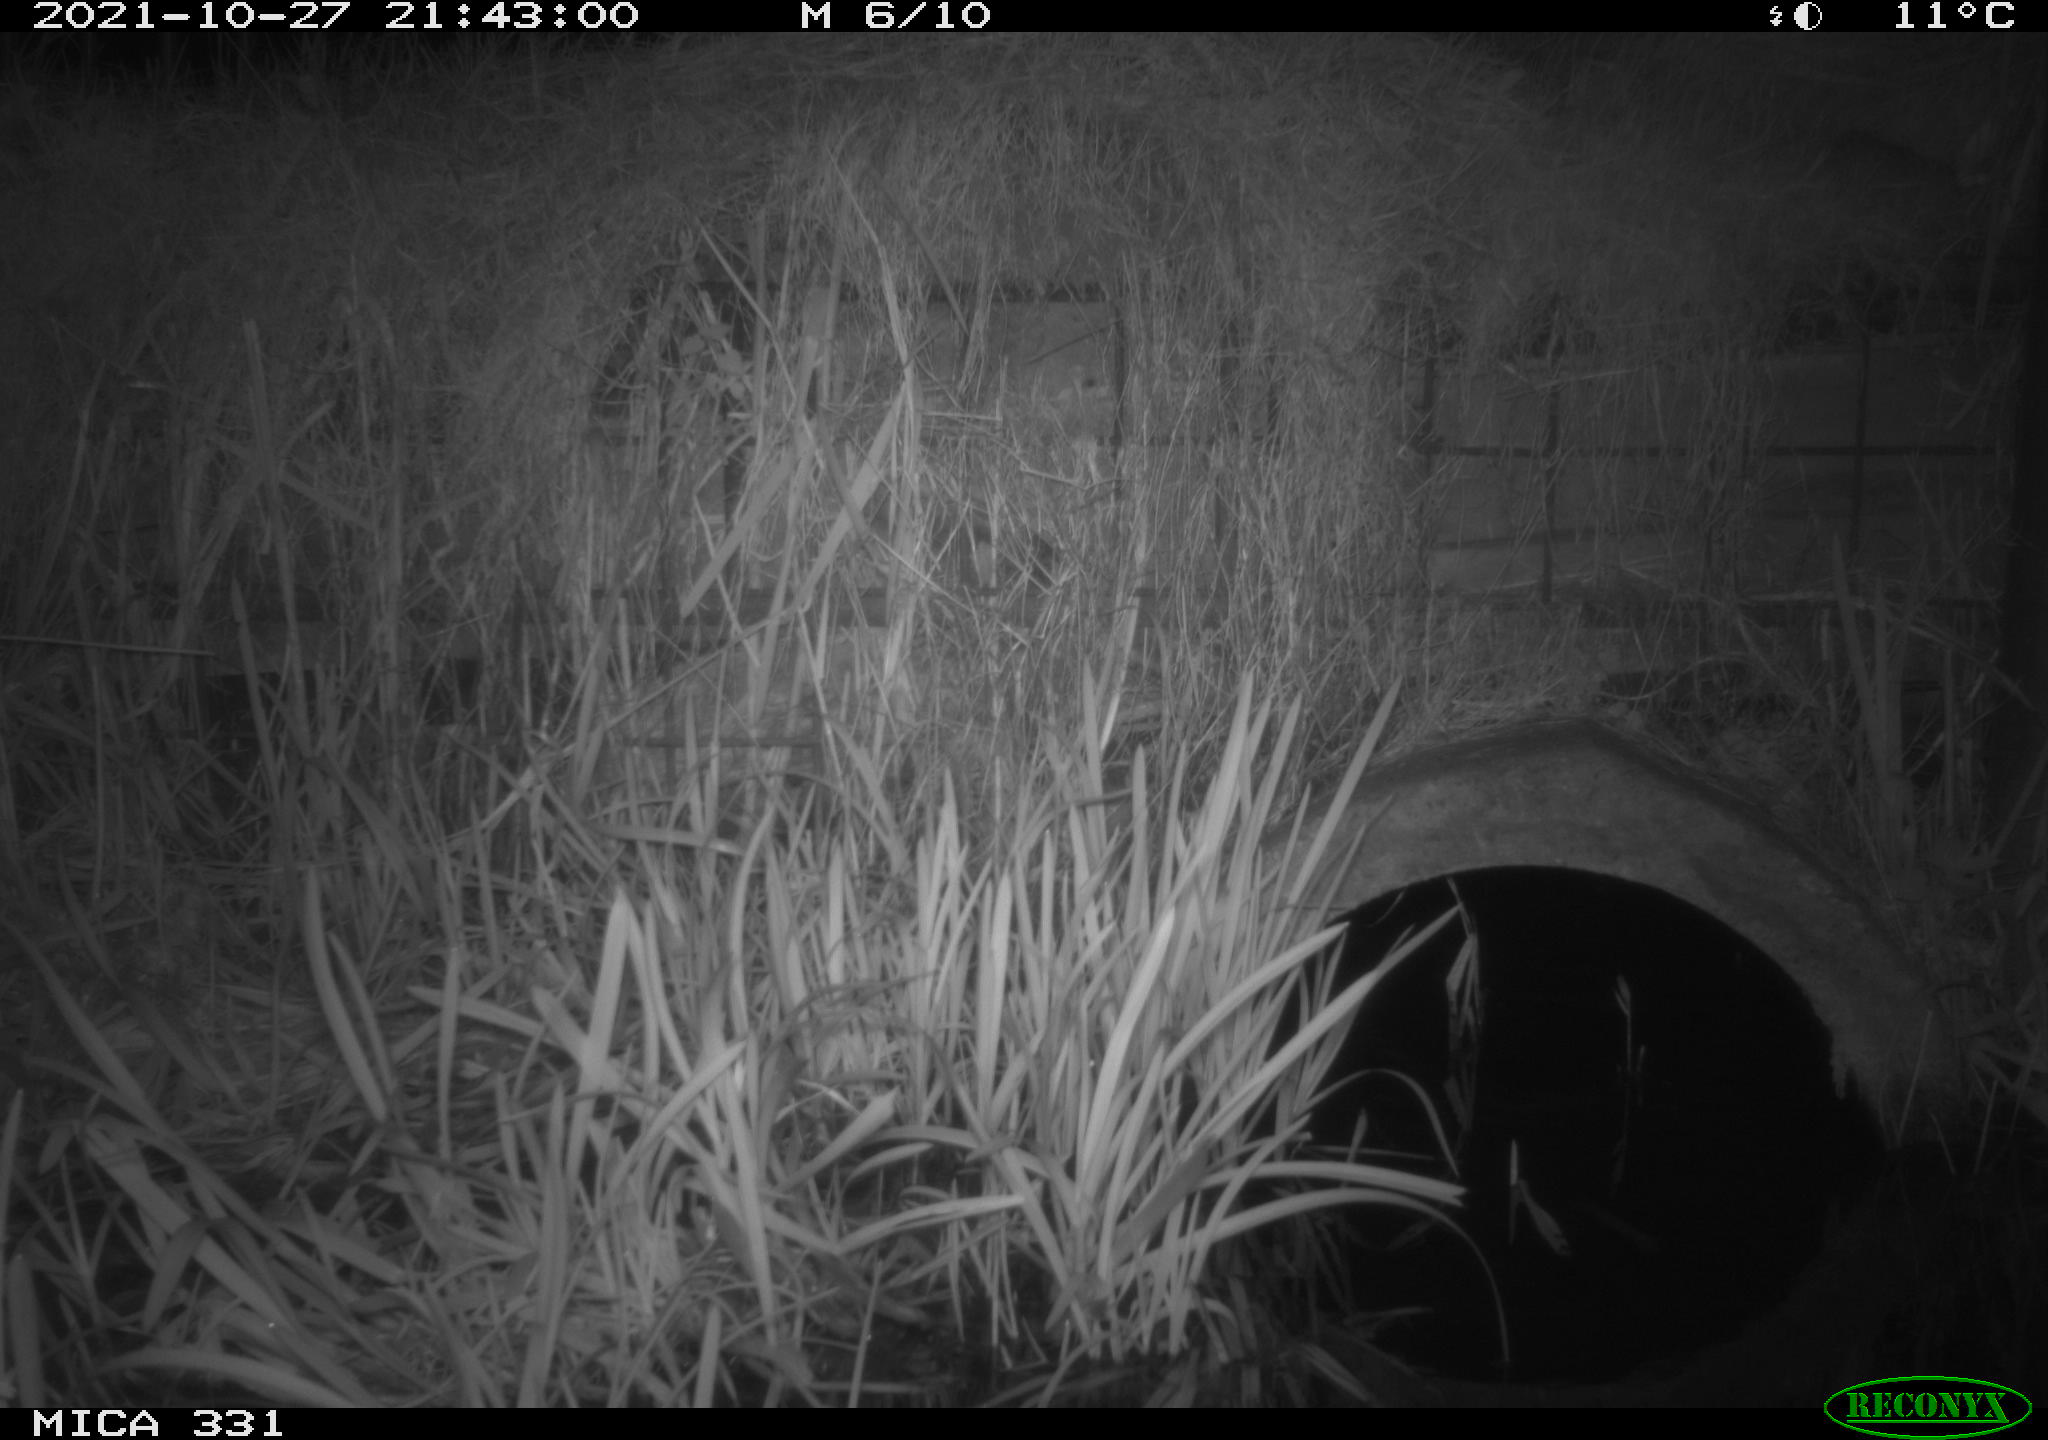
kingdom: Animalia
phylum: Chordata
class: Mammalia
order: Rodentia
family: Muridae
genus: Rattus
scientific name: Rattus norvegicus
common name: Brown rat
